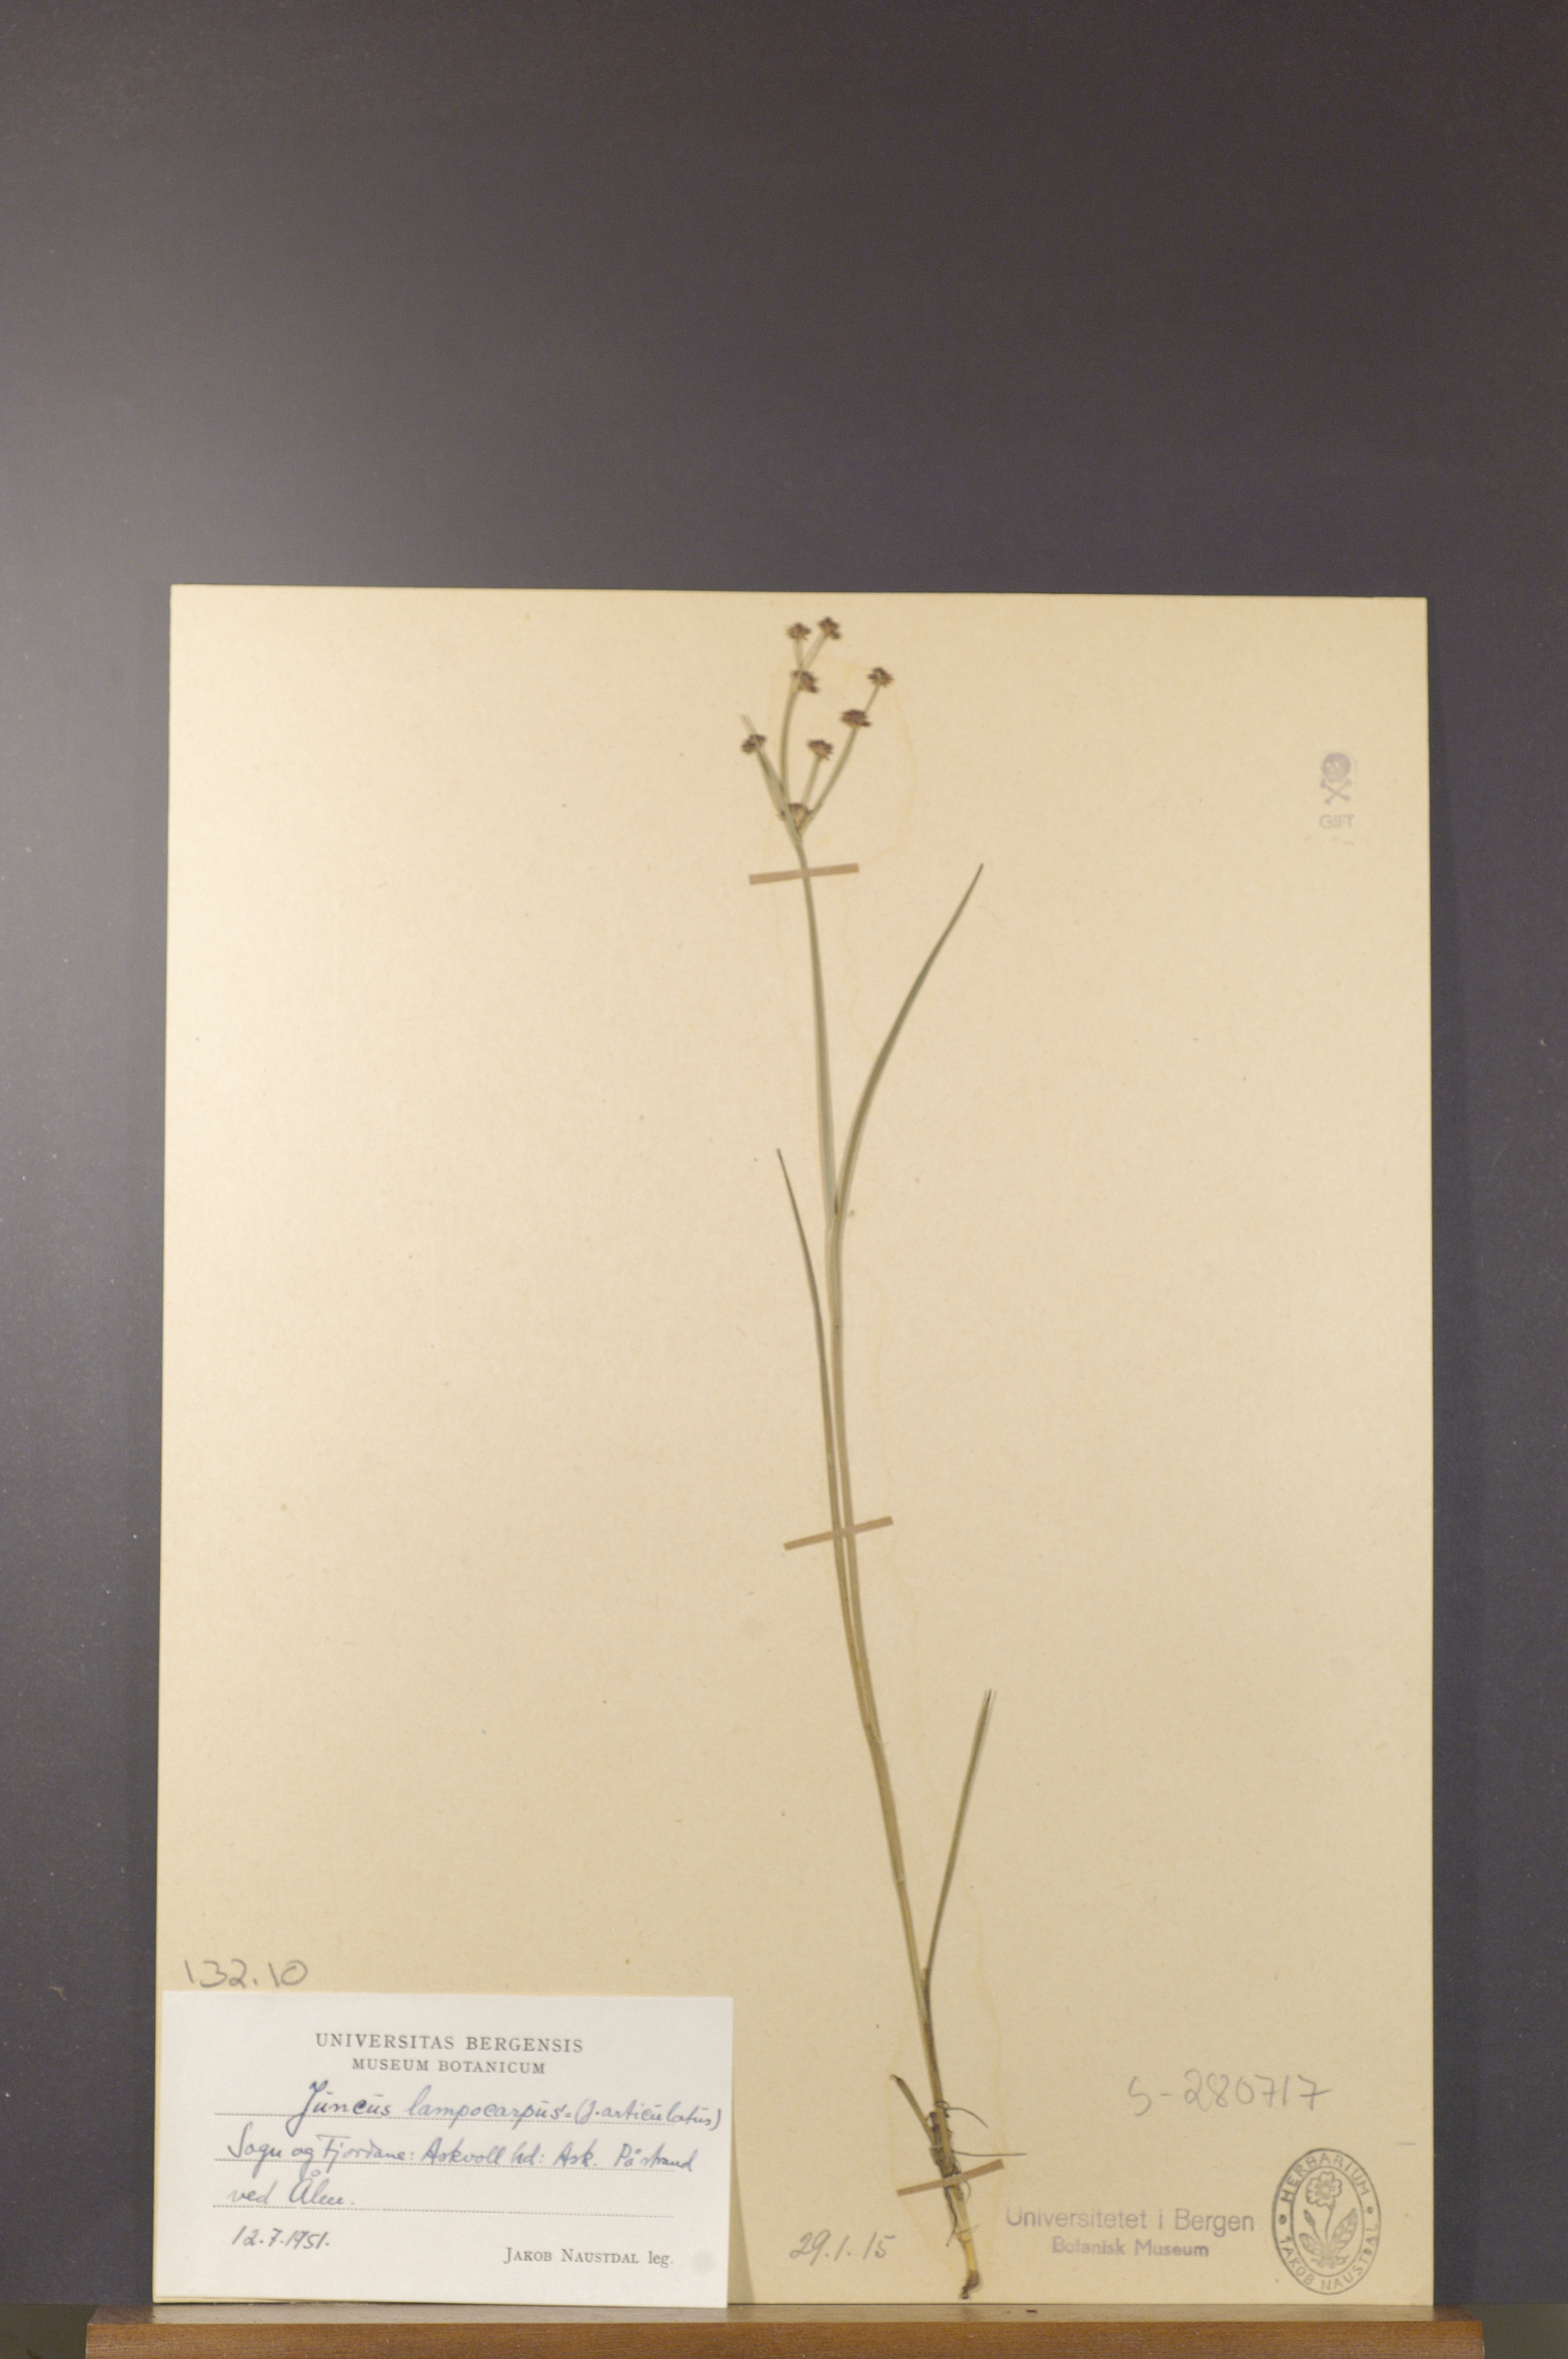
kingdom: Plantae
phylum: Tracheophyta
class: Liliopsida
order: Poales
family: Juncaceae
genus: Juncus
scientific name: Juncus articulatus
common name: Jointed rush
